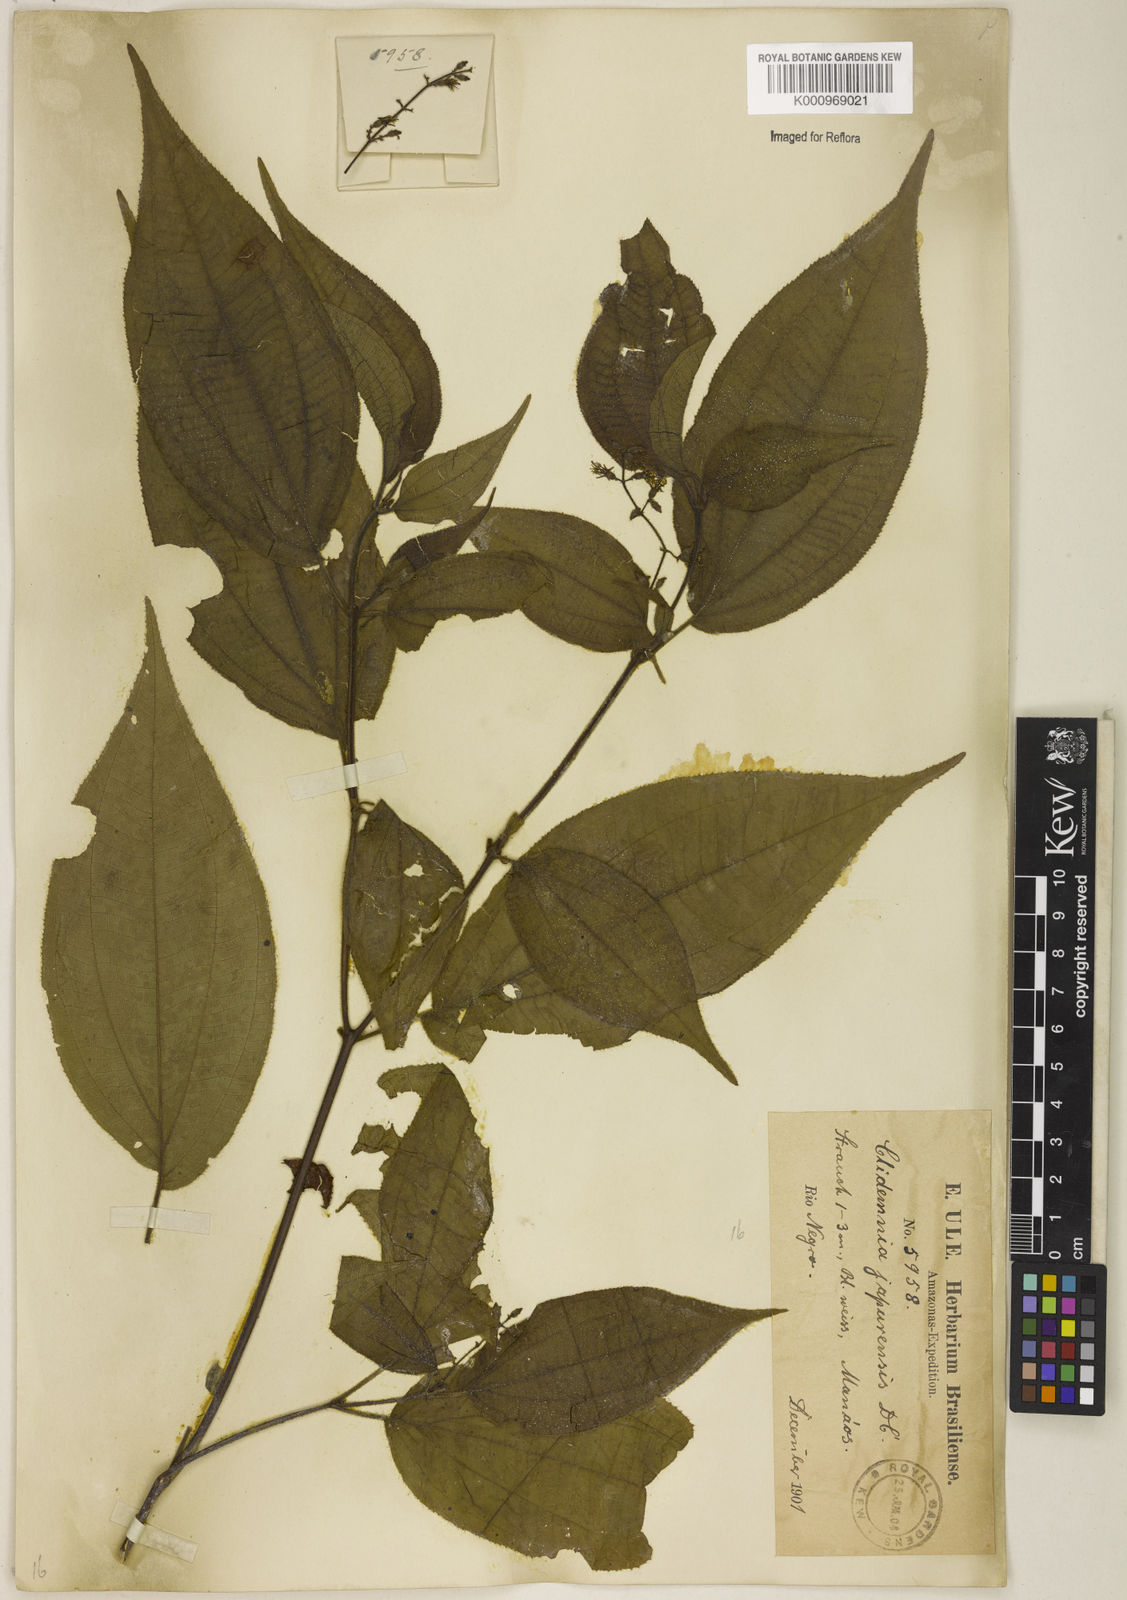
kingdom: Plantae
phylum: Tracheophyta
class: Magnoliopsida
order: Myrtales
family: Melastomataceae
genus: Miconia
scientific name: Miconia heteroclita
